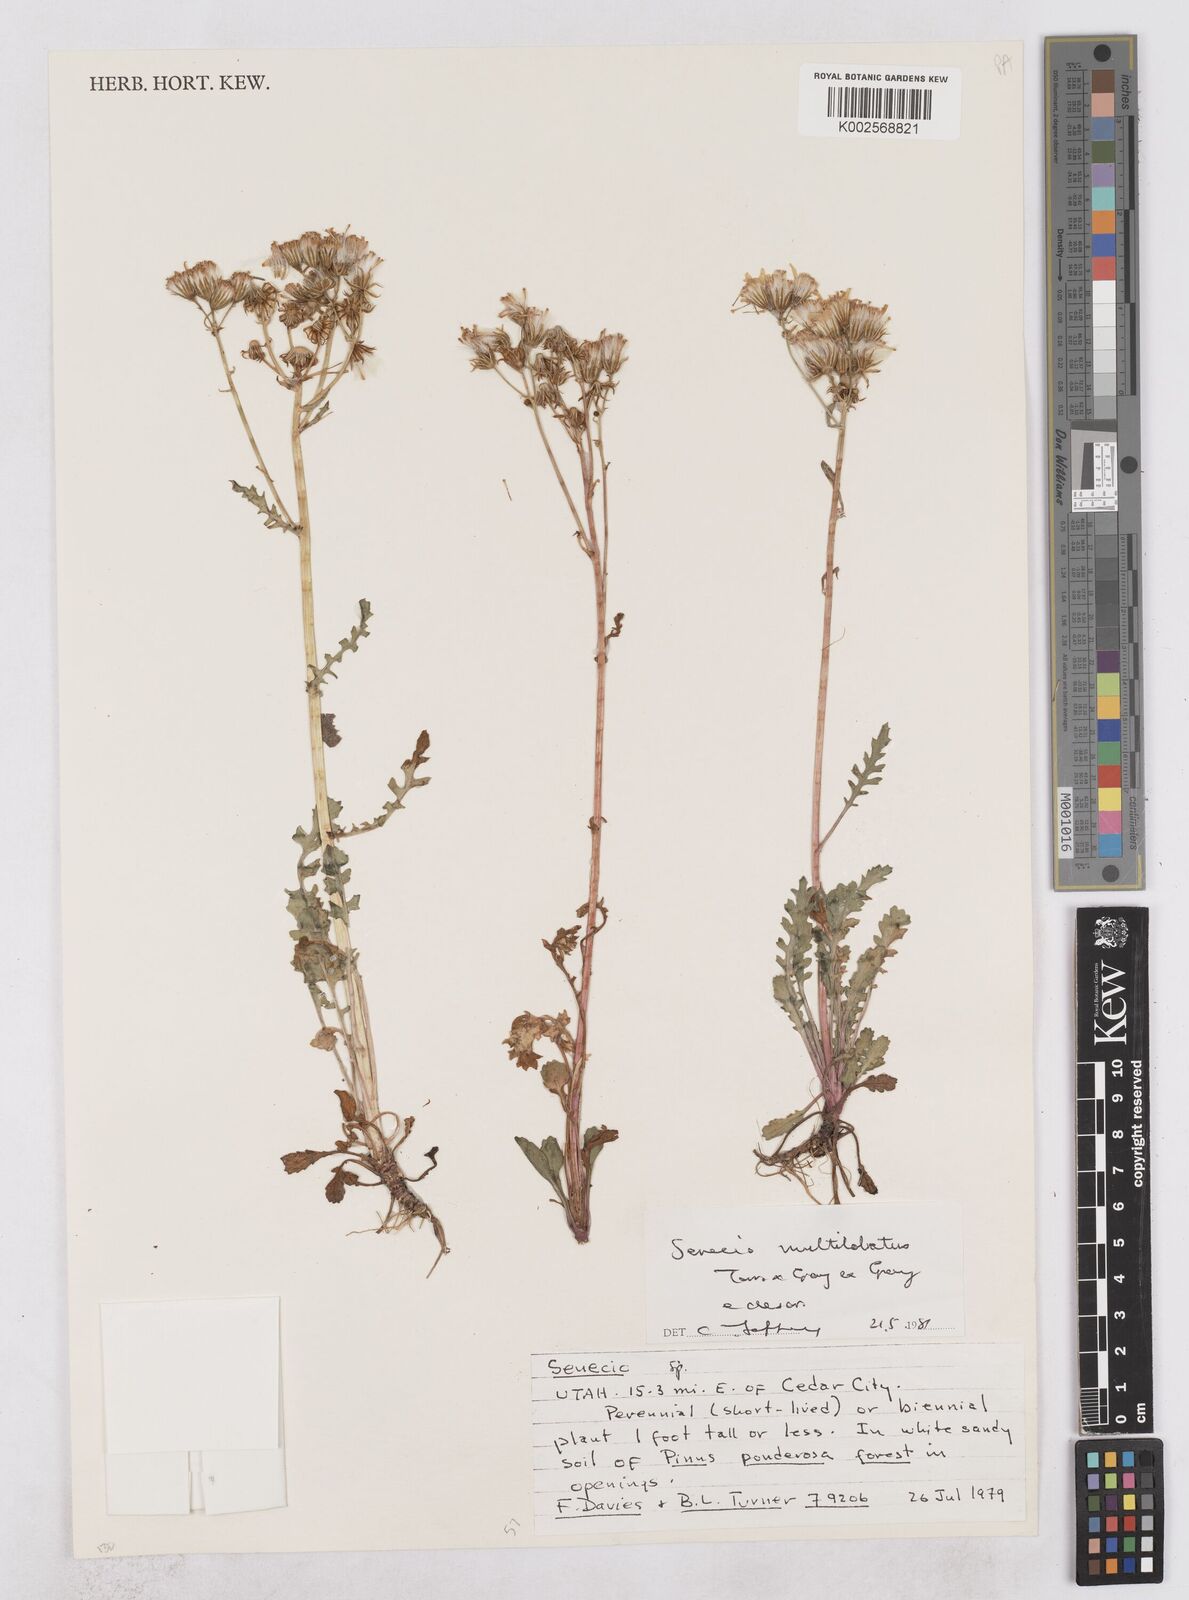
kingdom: Plantae
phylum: Tracheophyta
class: Magnoliopsida
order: Asterales
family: Asteraceae
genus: Packera
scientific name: Packera multilobata
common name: Lobe-leaf groundsel
